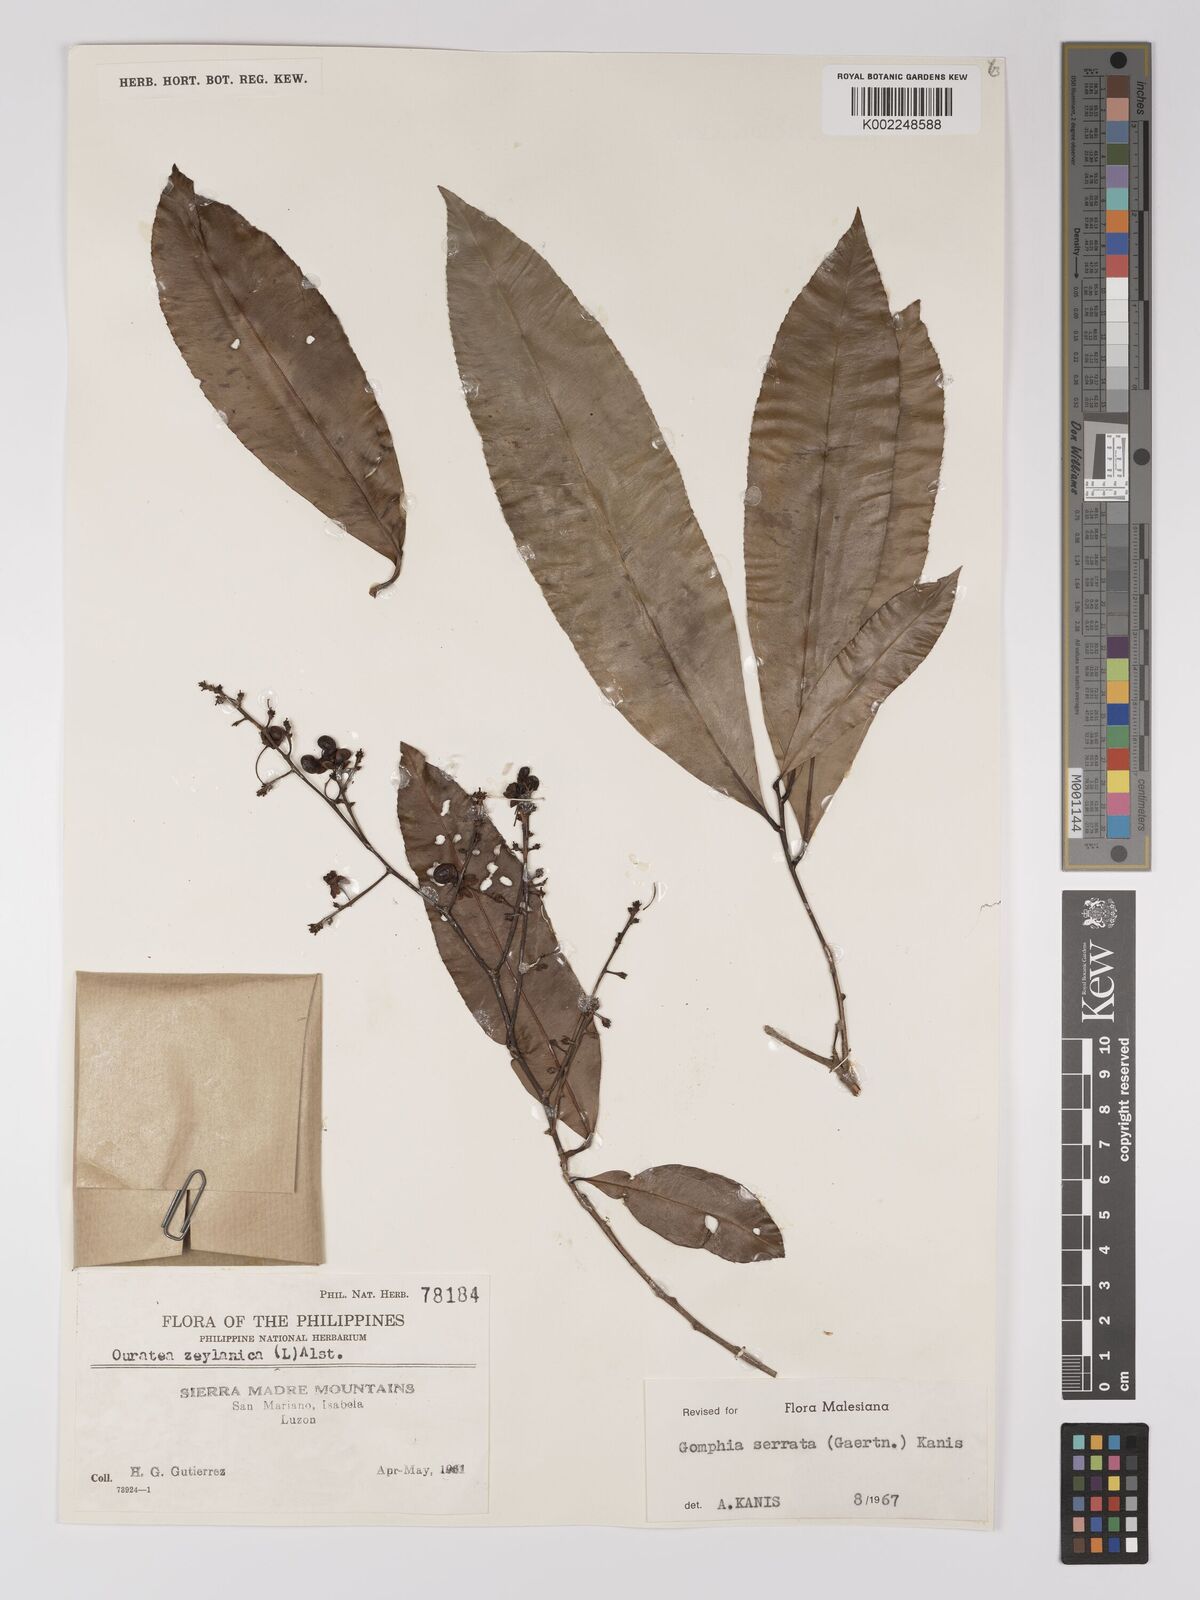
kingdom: Plantae
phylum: Tracheophyta
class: Magnoliopsida
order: Malpighiales
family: Ochnaceae
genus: Gomphia
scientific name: Gomphia serrata
